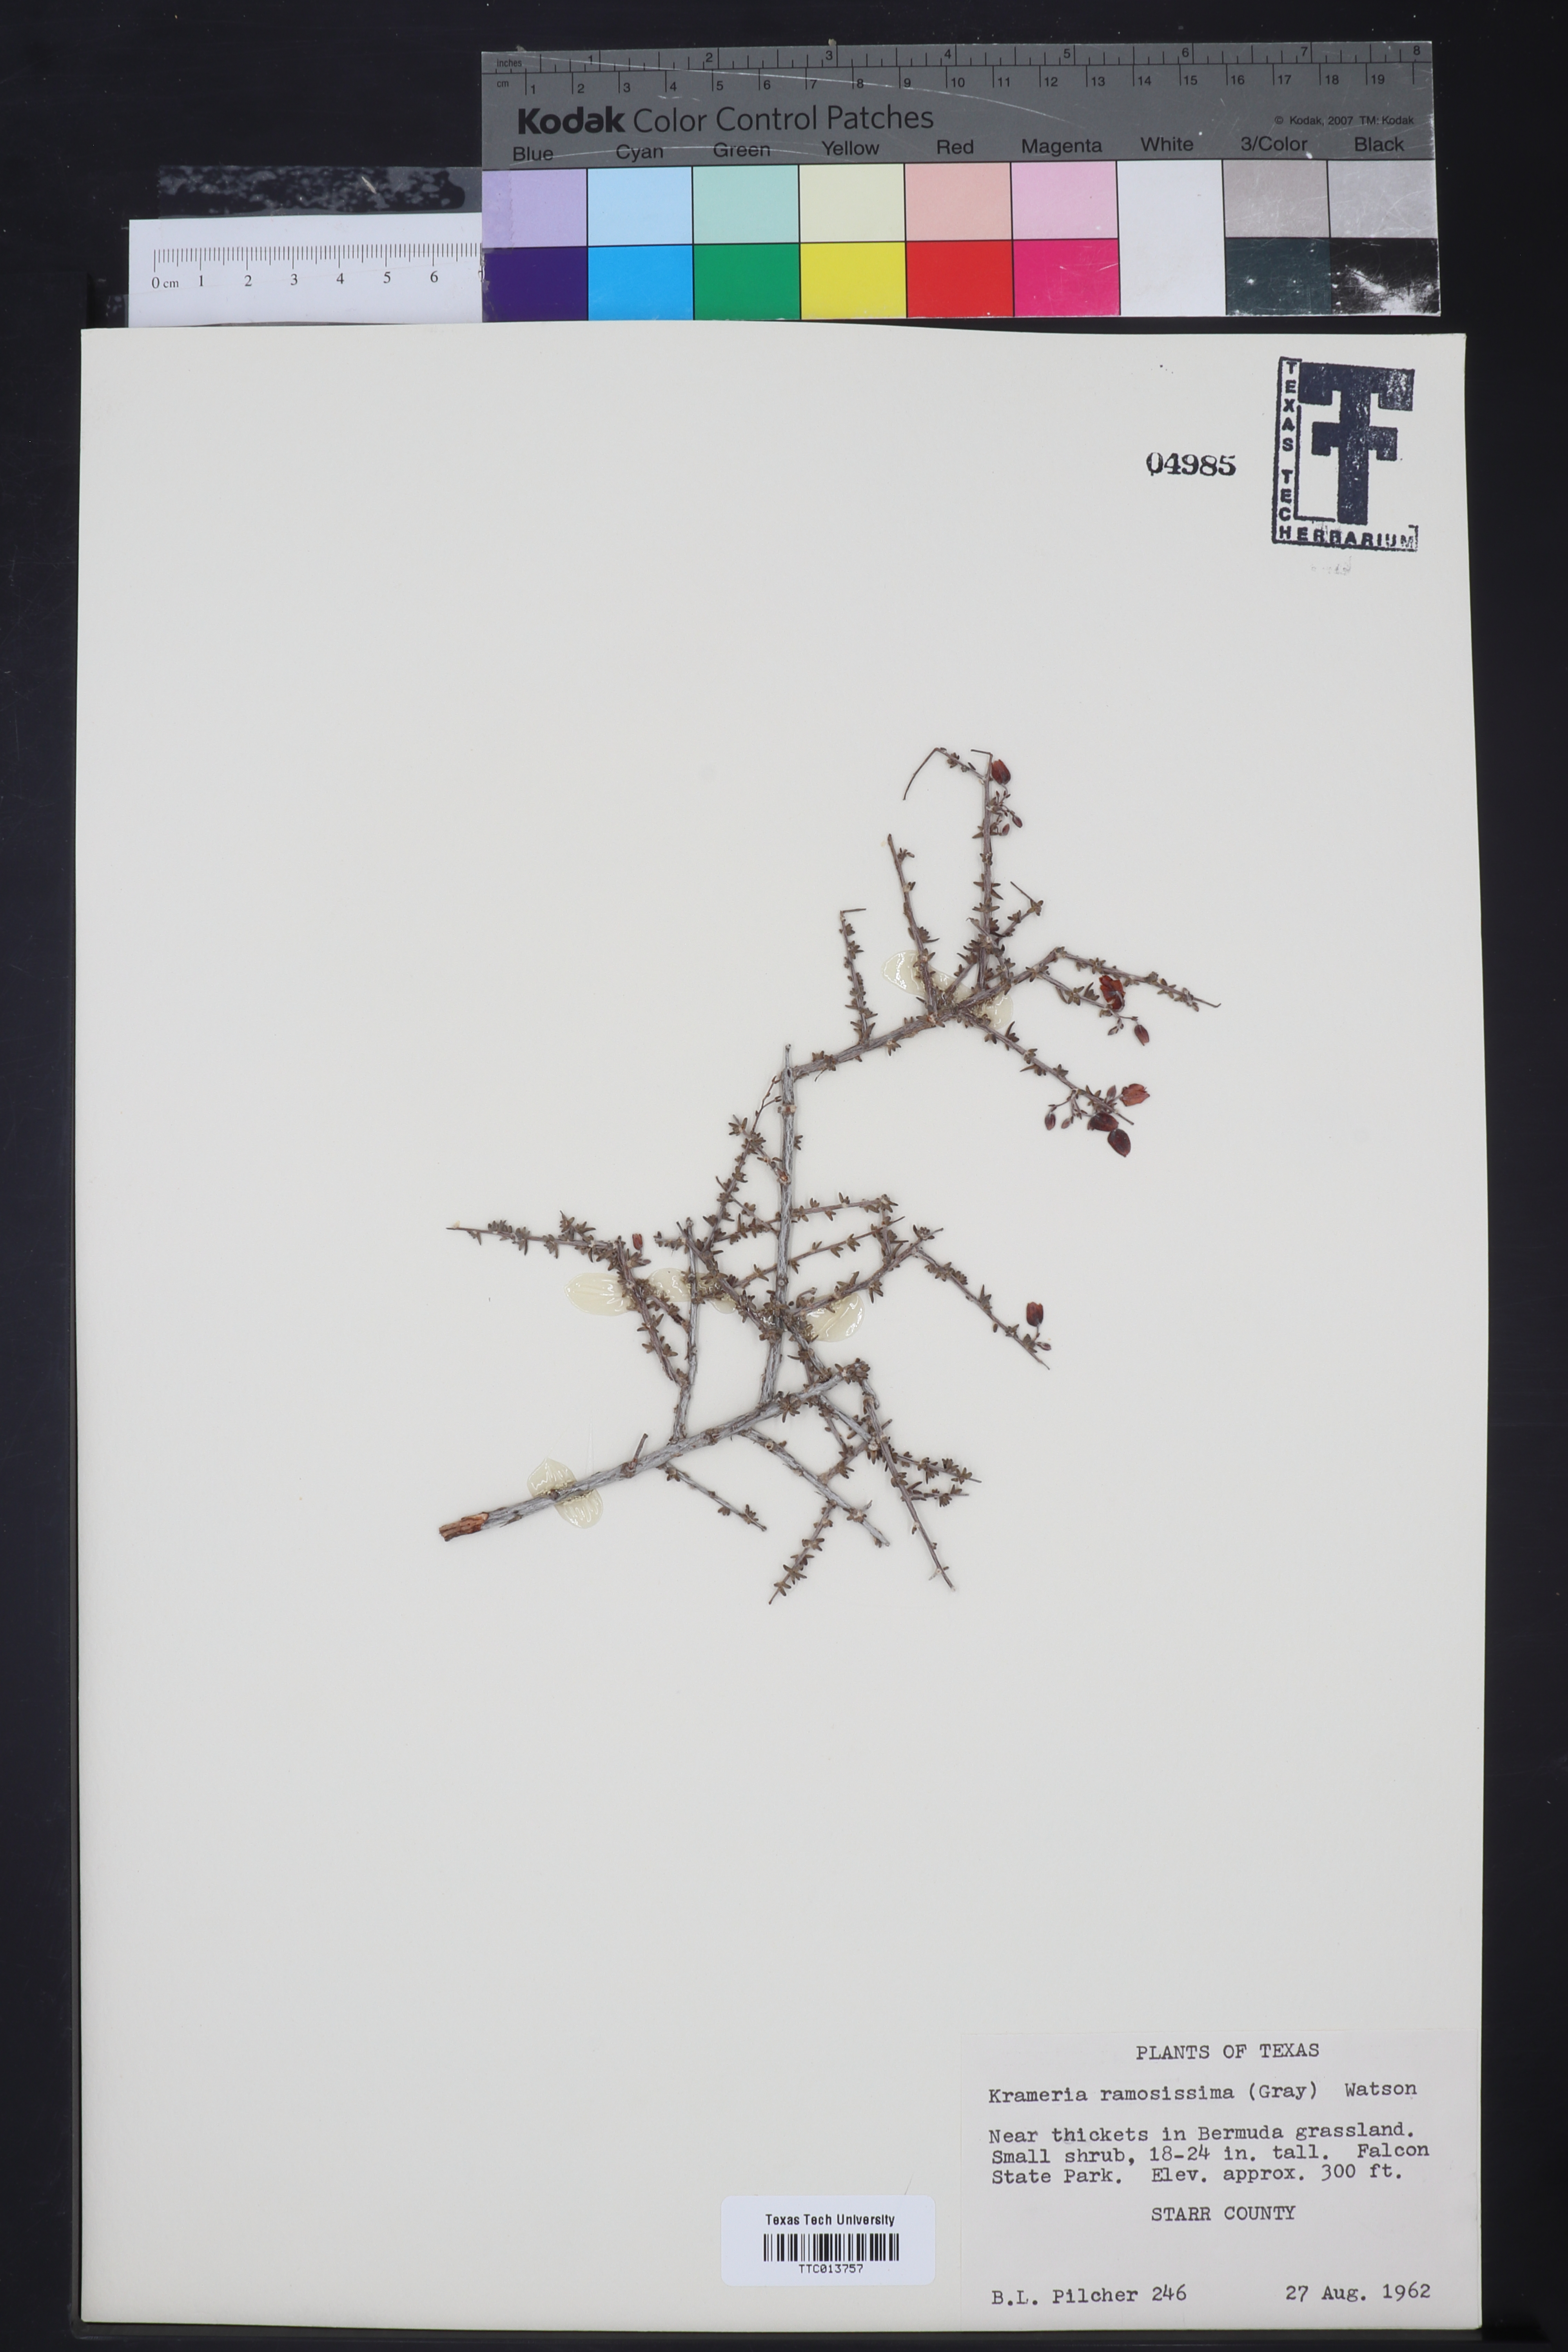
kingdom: Plantae
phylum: Tracheophyta
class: Magnoliopsida
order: Zygophyllales
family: Krameriaceae
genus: Krameria
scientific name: Krameria ramosissima
